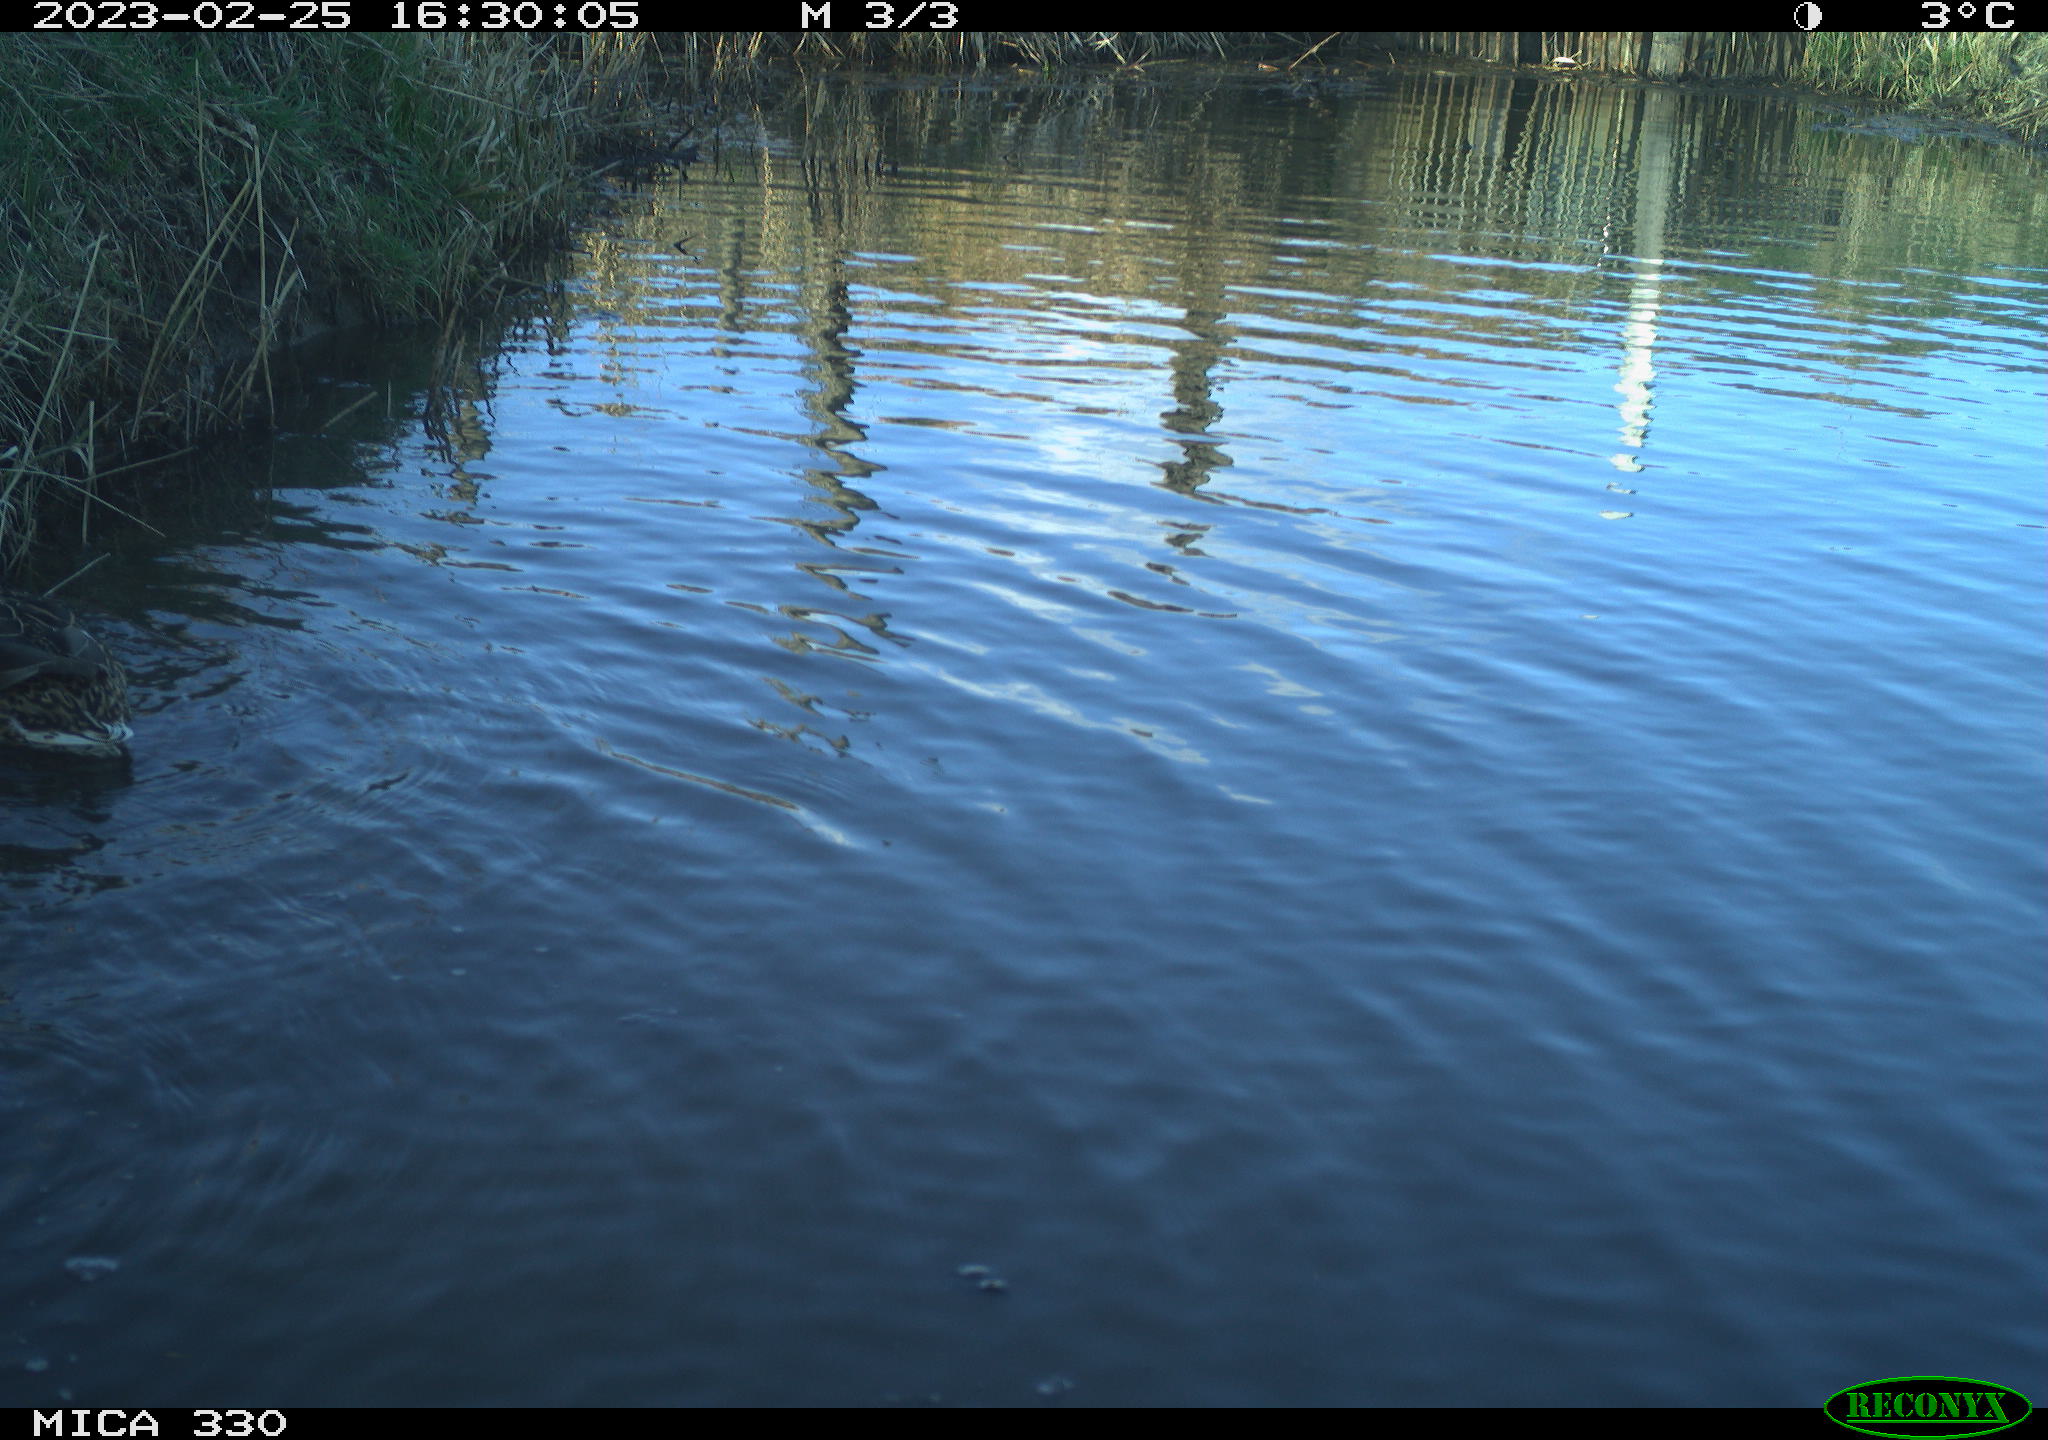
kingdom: Animalia
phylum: Chordata
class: Aves
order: Anseriformes
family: Anatidae
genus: Anas
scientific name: Anas
